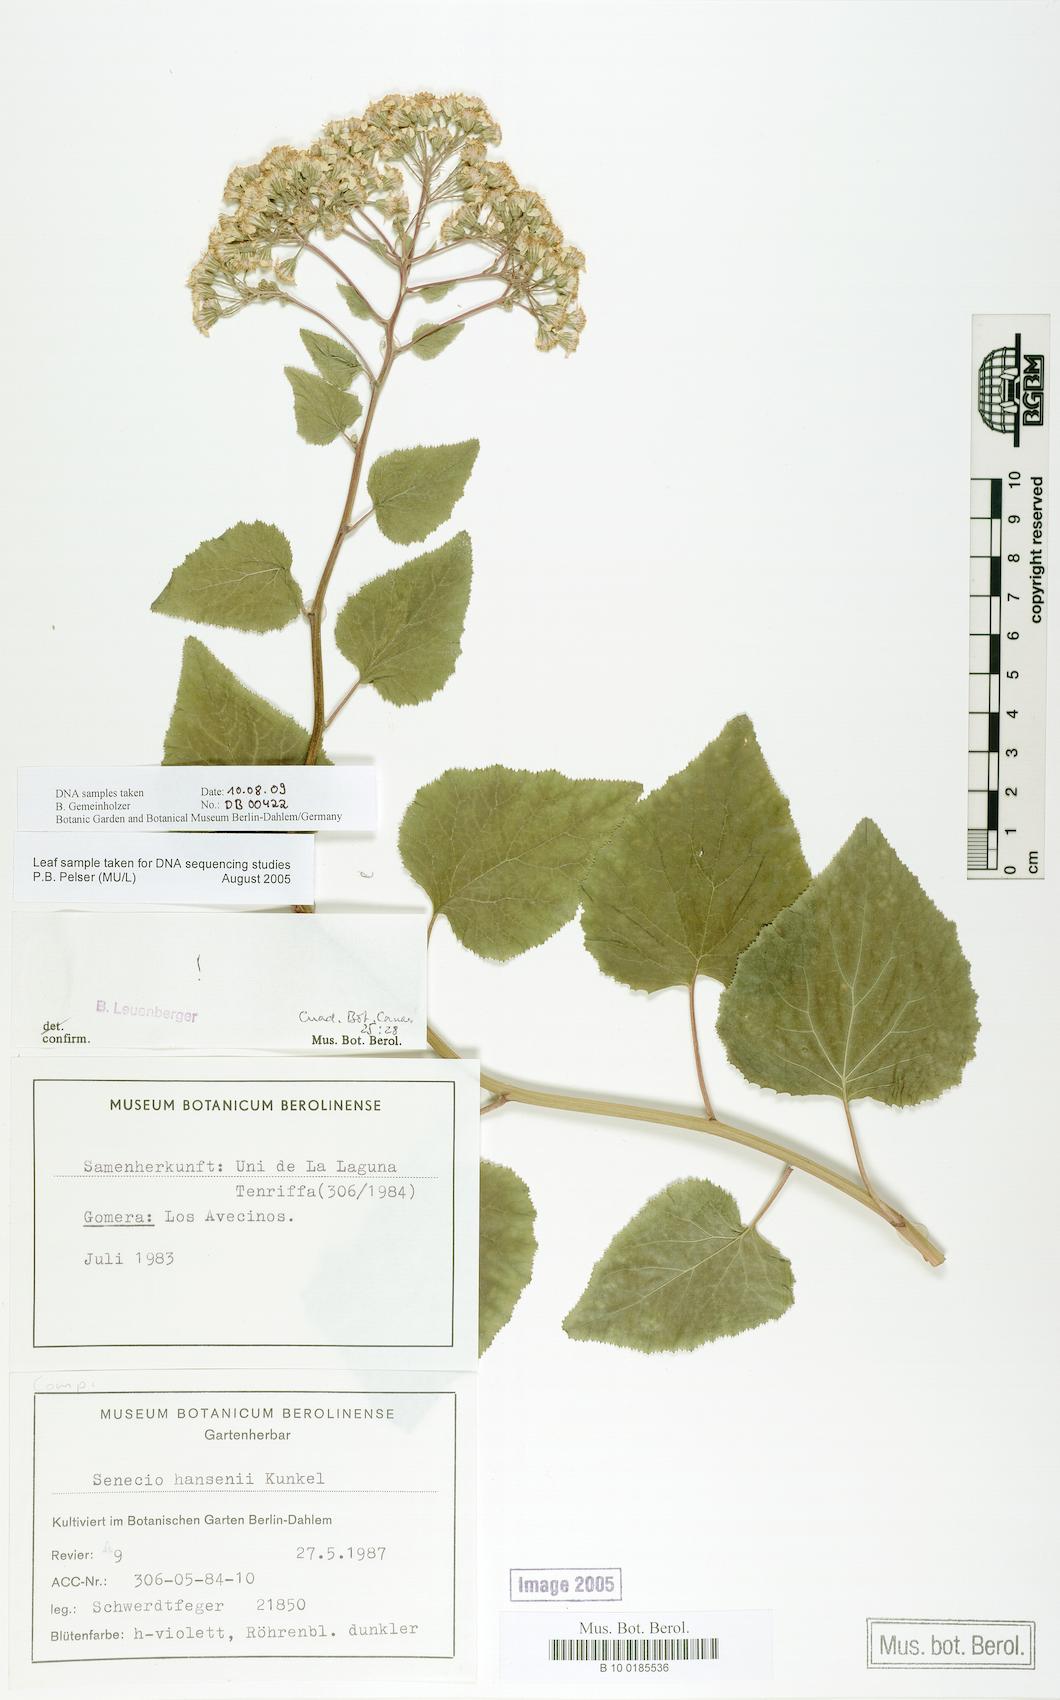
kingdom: Plantae
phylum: Tracheophyta
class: Magnoliopsida
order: Asterales
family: Asteraceae
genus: Pericallis
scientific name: Pericallis hansenii
